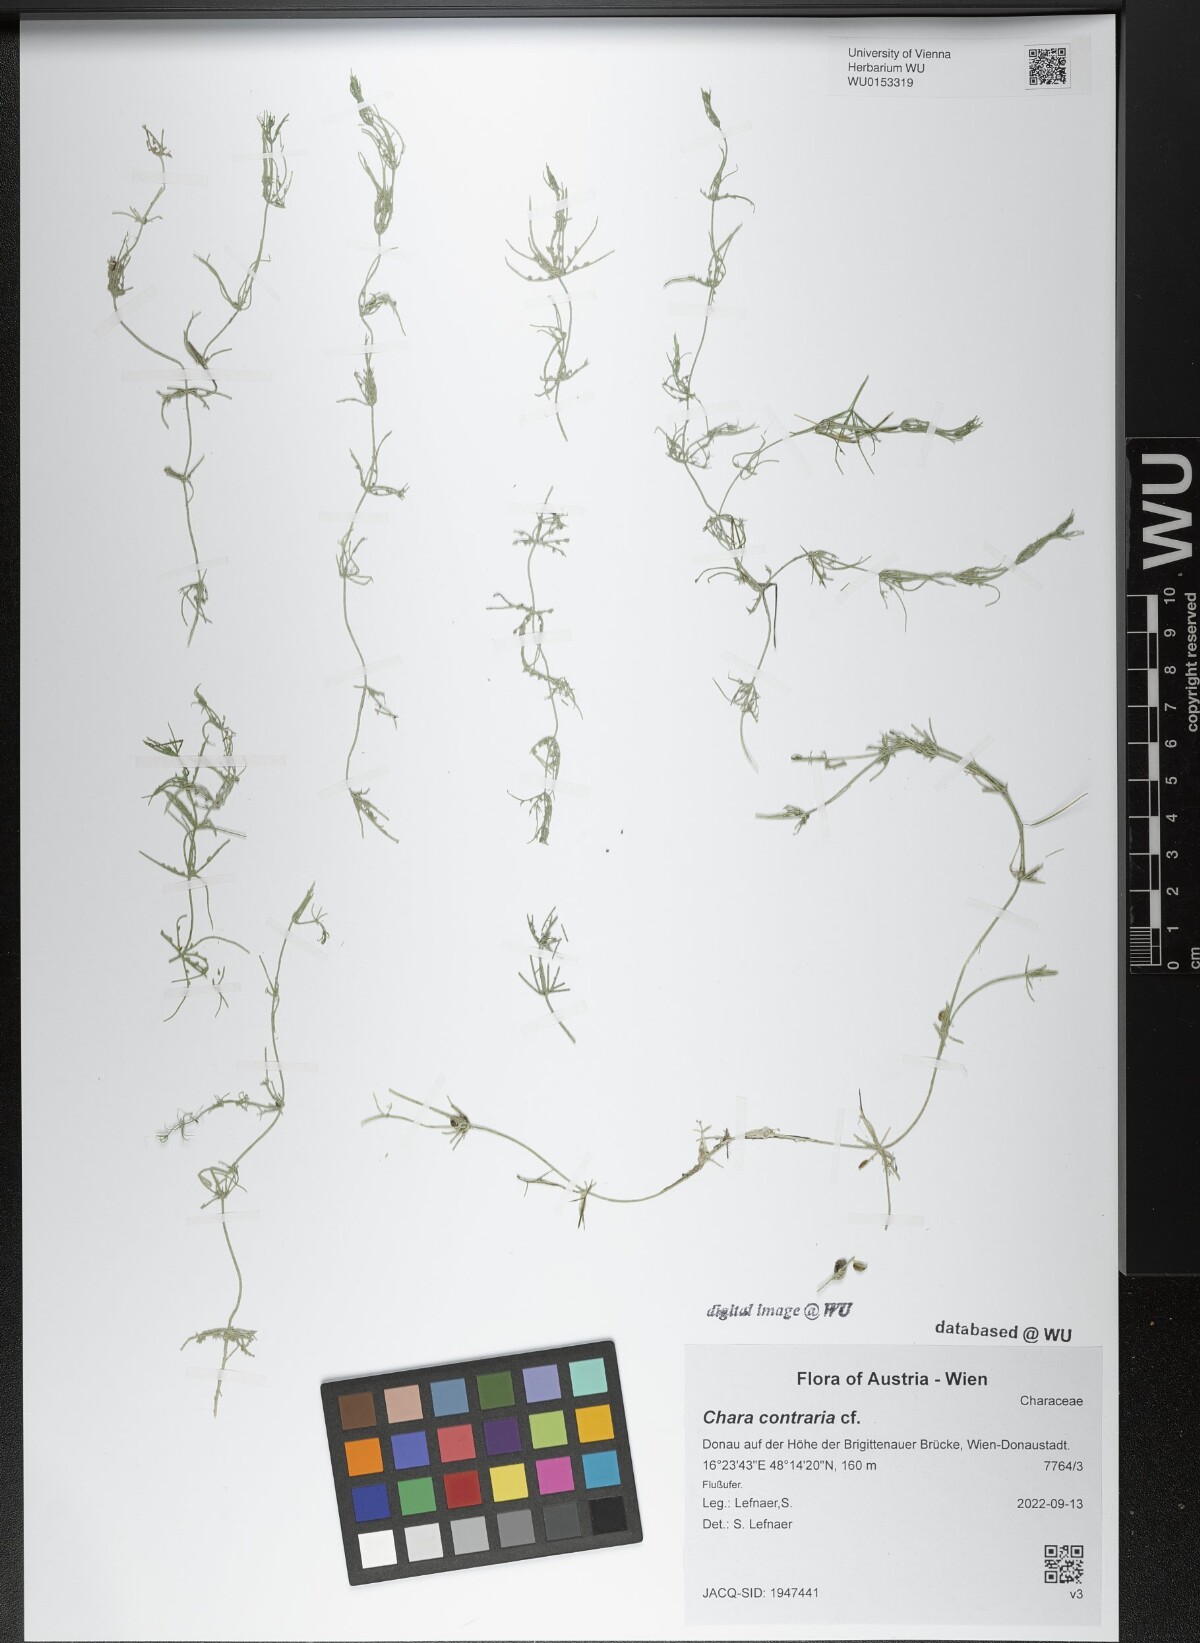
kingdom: Plantae
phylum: Charophyta
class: Charophyceae
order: Charales
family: Characeae
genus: Chara
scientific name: Chara contraria
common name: Opposite stonewort
